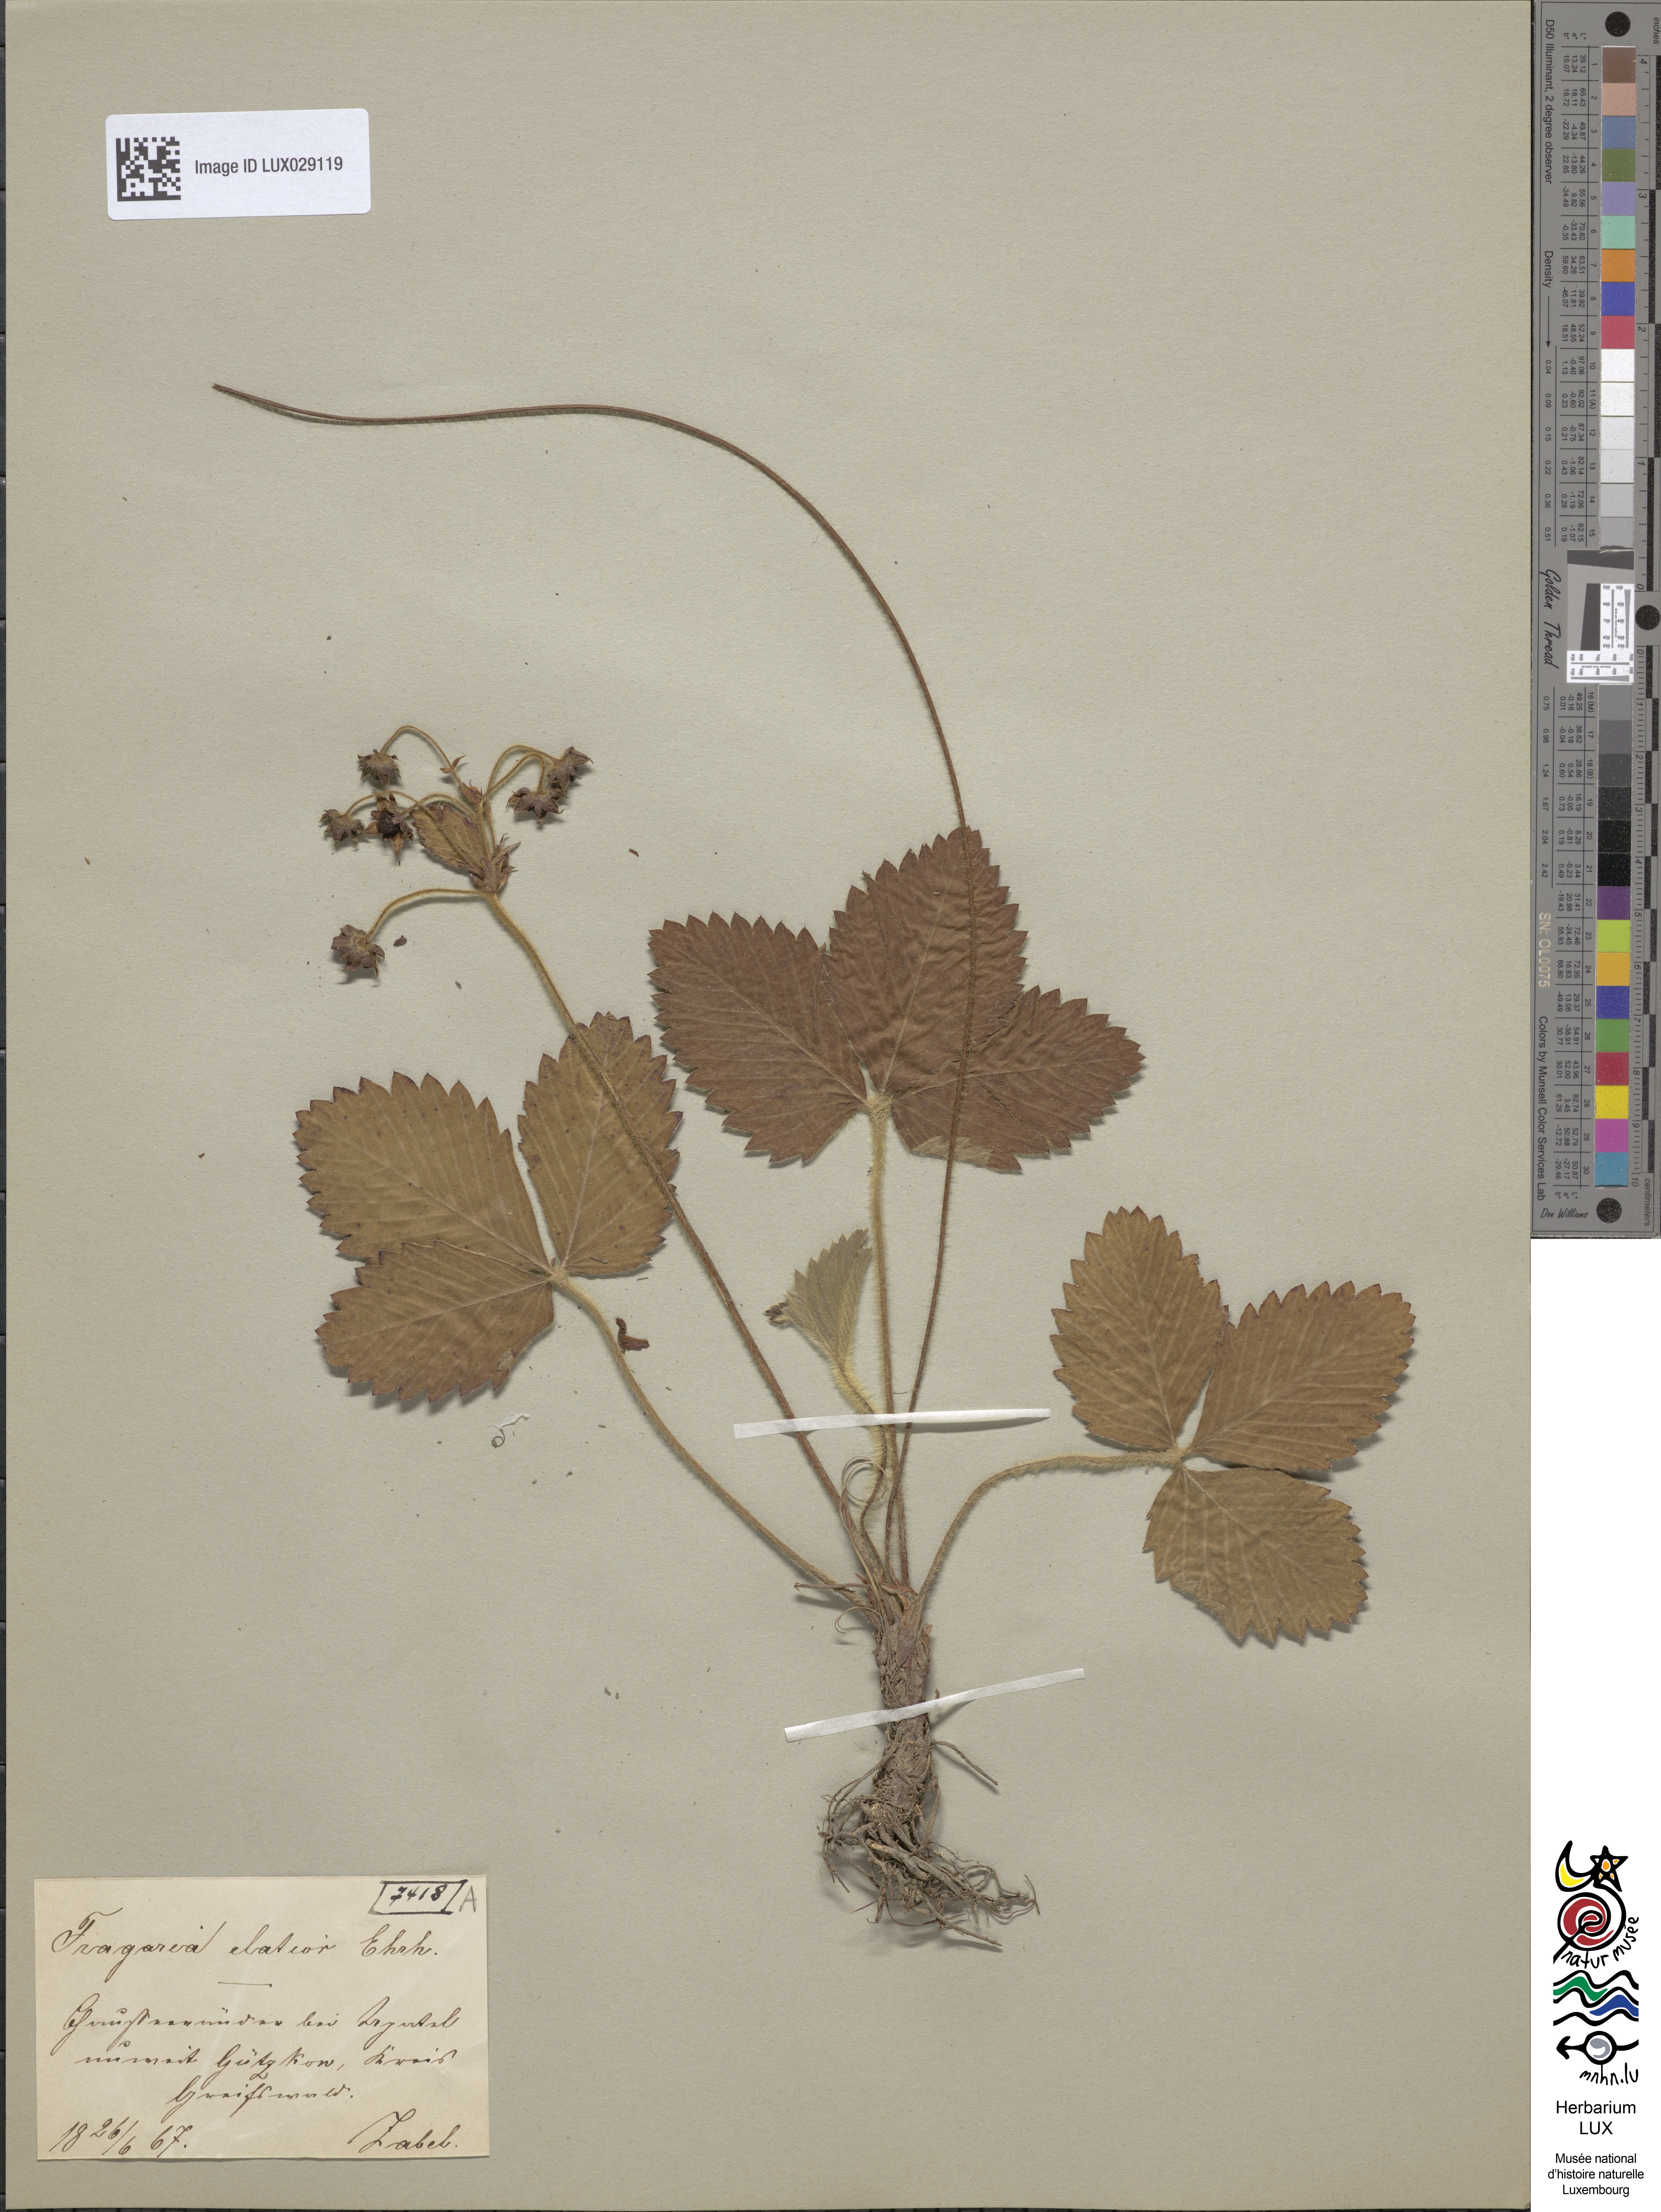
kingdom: Plantae
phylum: Tracheophyta
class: Magnoliopsida
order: Rosales
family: Rosaceae
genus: Fragaria
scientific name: Fragaria moschata
